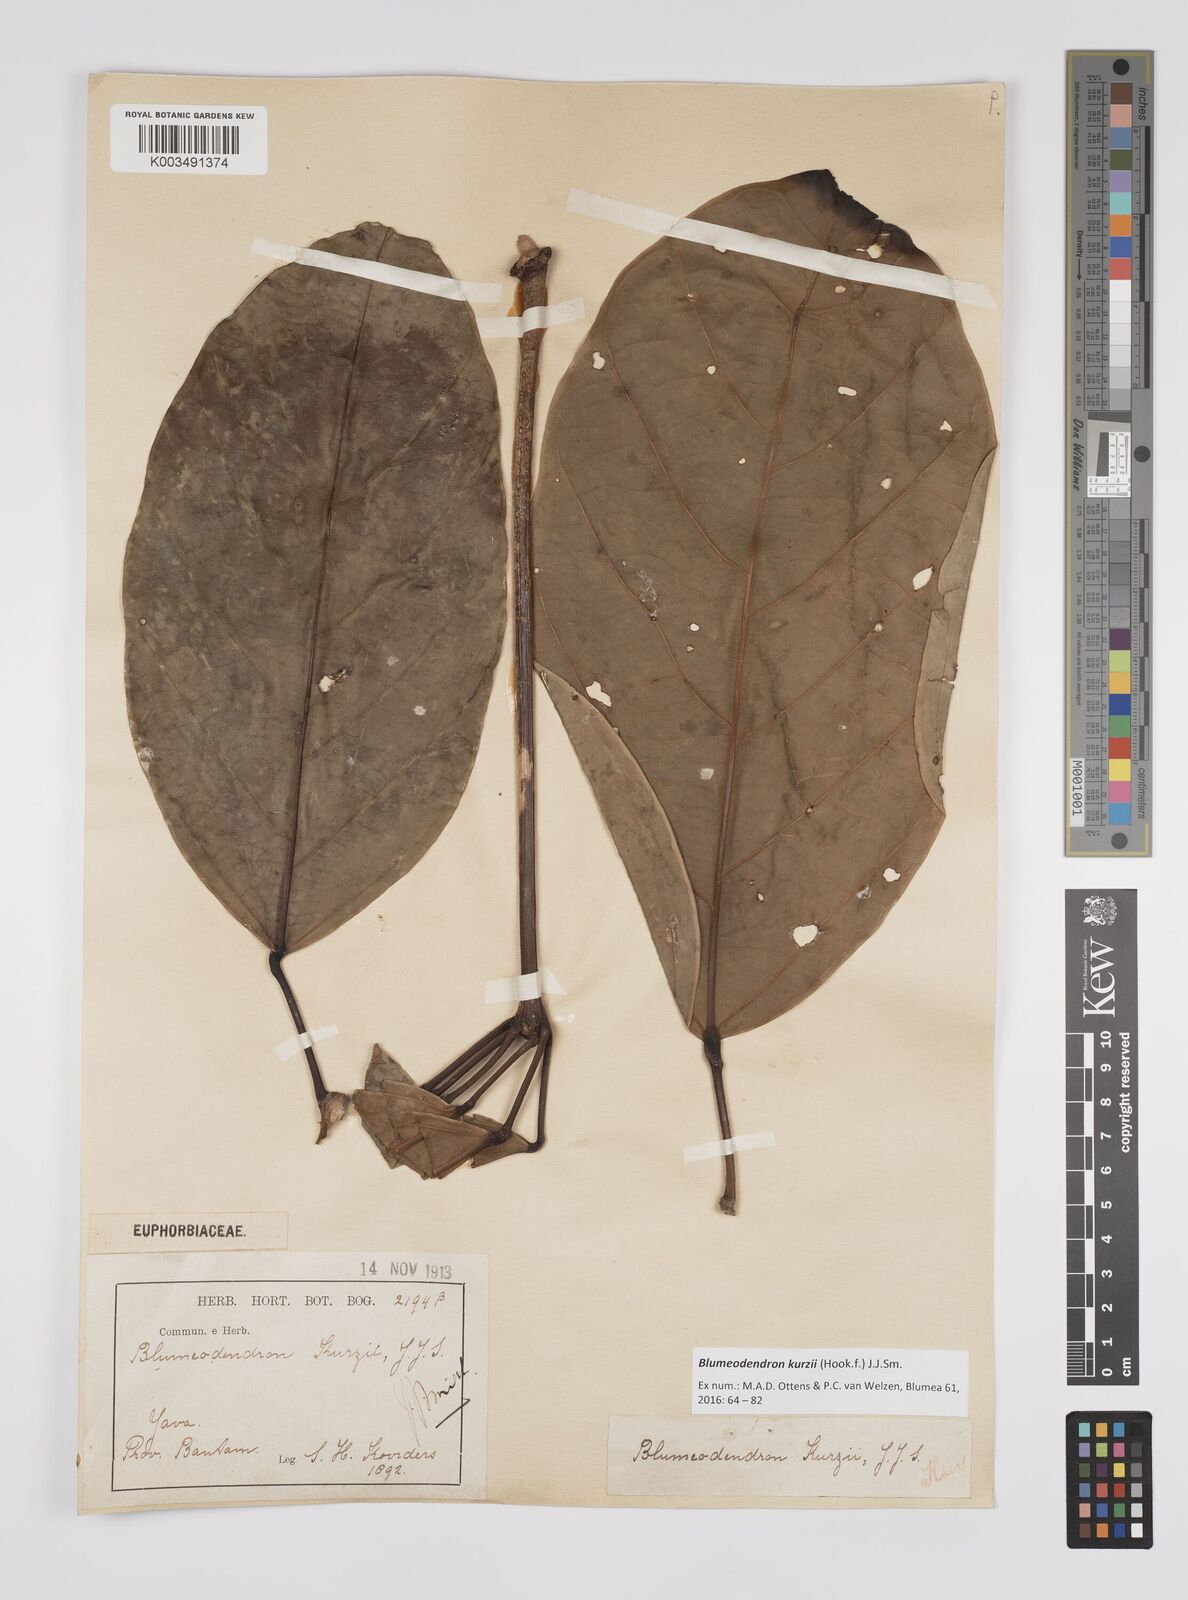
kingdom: Plantae
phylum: Tracheophyta
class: Magnoliopsida
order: Malpighiales
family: Euphorbiaceae
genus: Blumeodendron
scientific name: Blumeodendron kurzii
